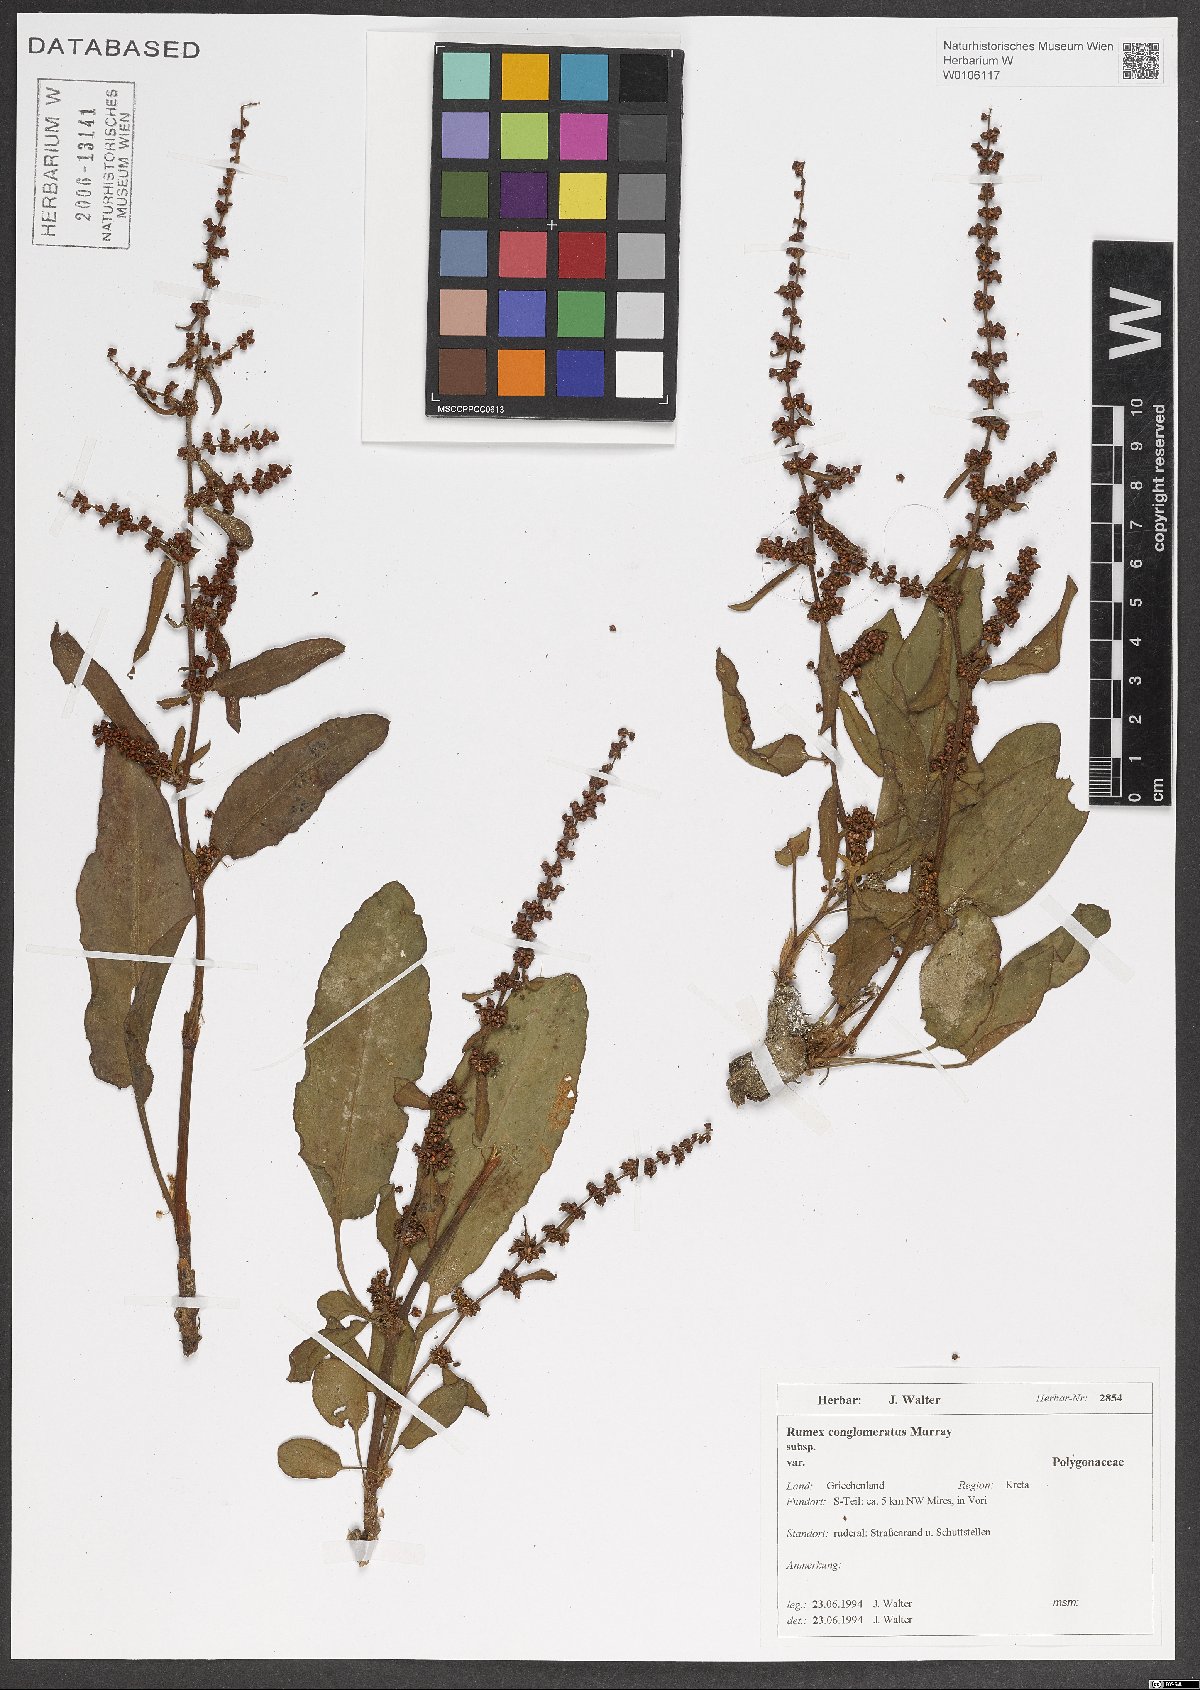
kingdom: Plantae
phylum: Tracheophyta
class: Magnoliopsida
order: Caryophyllales
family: Polygonaceae
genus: Rumex
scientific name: Rumex conglomeratus
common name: Clustered dock
